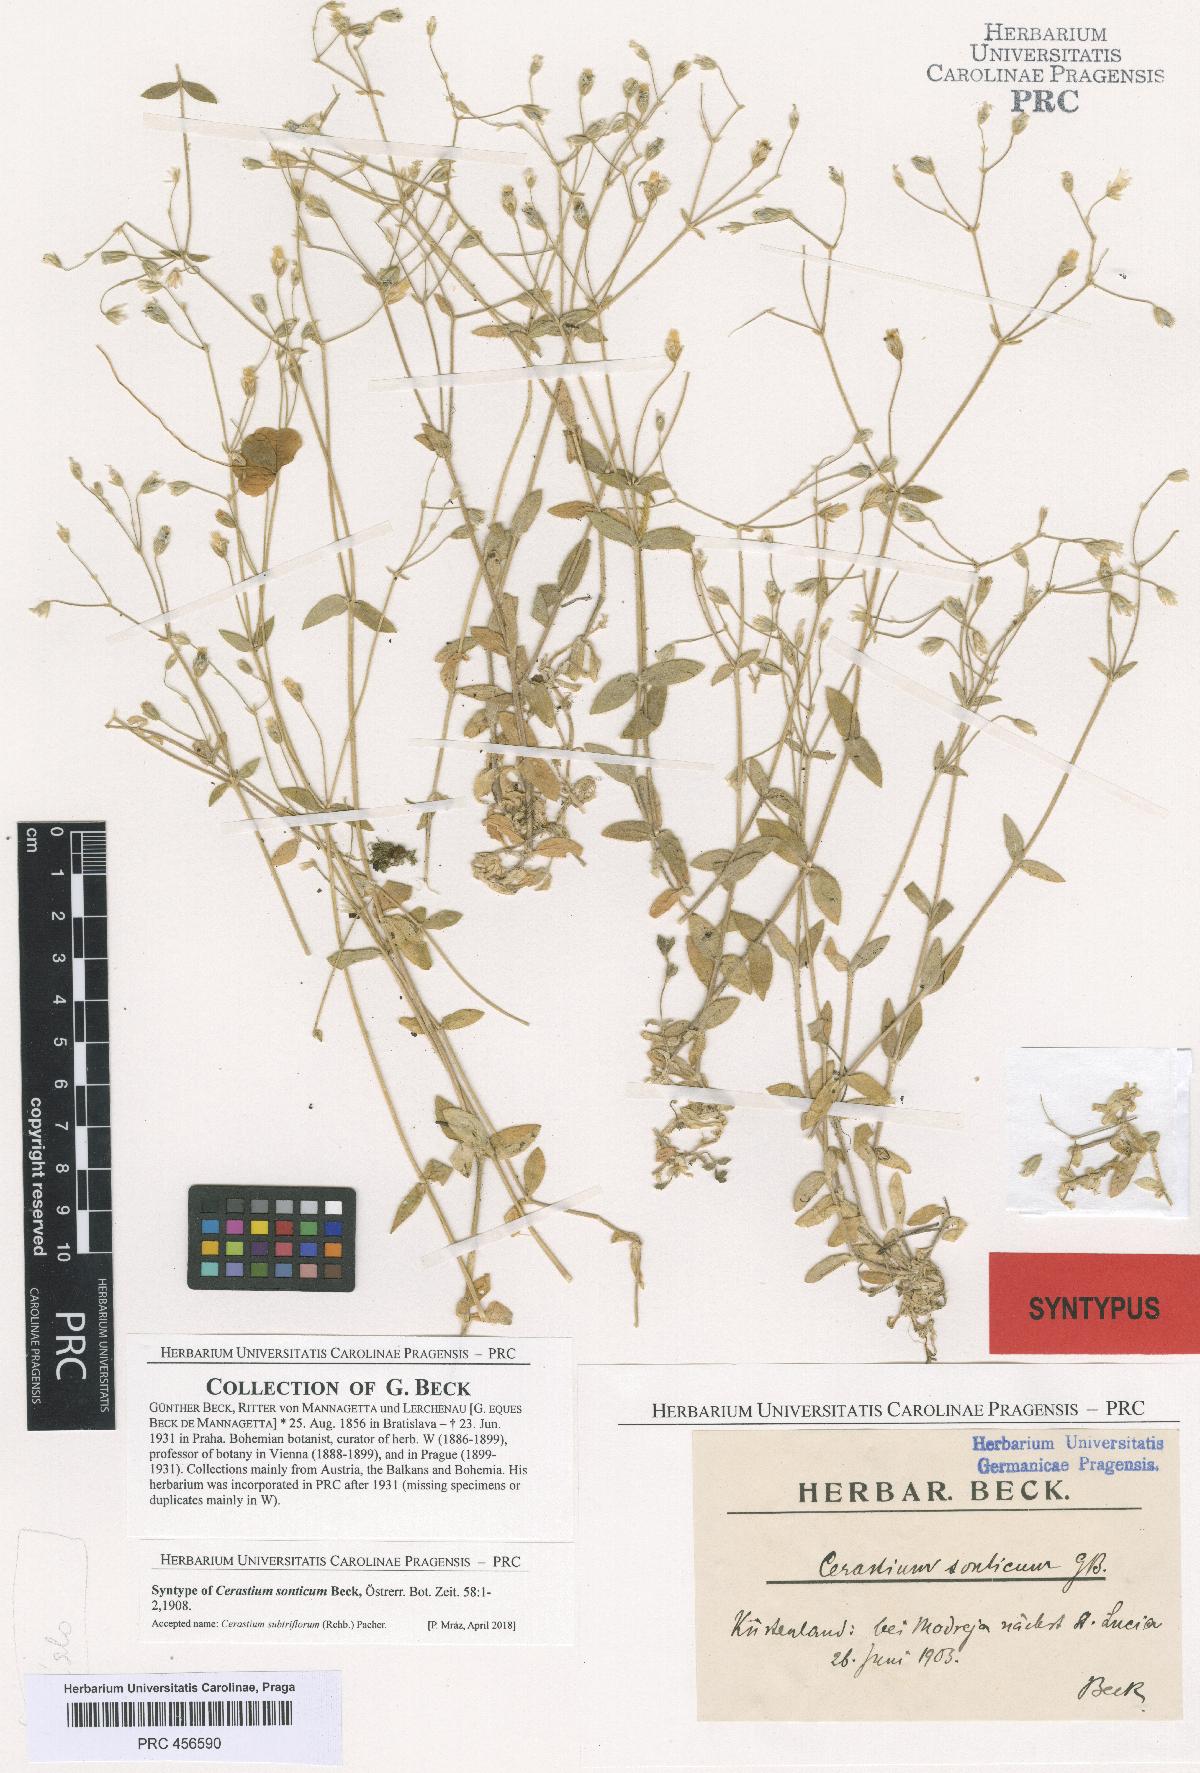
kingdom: Plantae
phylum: Tracheophyta
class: Magnoliopsida
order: Caryophyllales
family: Caryophyllaceae
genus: Cerastium
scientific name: Cerastium subtriflorum
